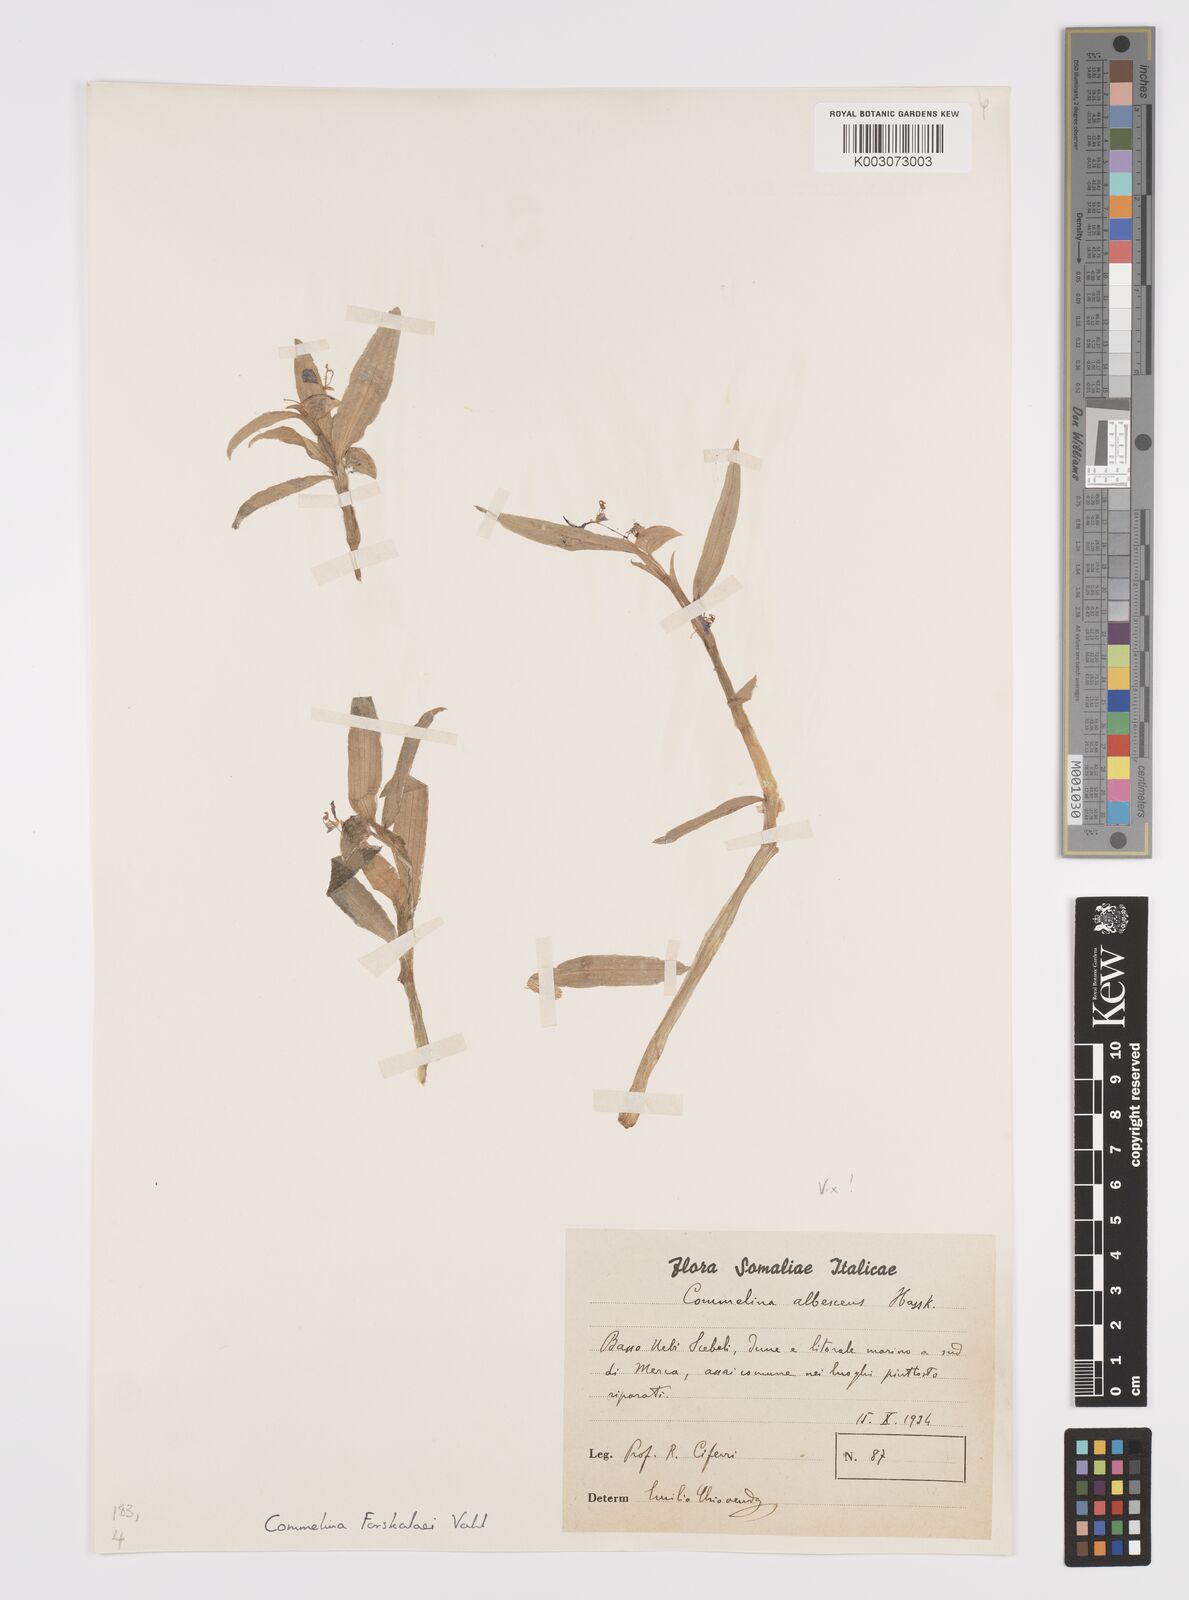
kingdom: Plantae
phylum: Tracheophyta
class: Liliopsida
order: Commelinales
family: Commelinaceae
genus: Commelina
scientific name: Commelina forskaolii
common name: Rat's ear
